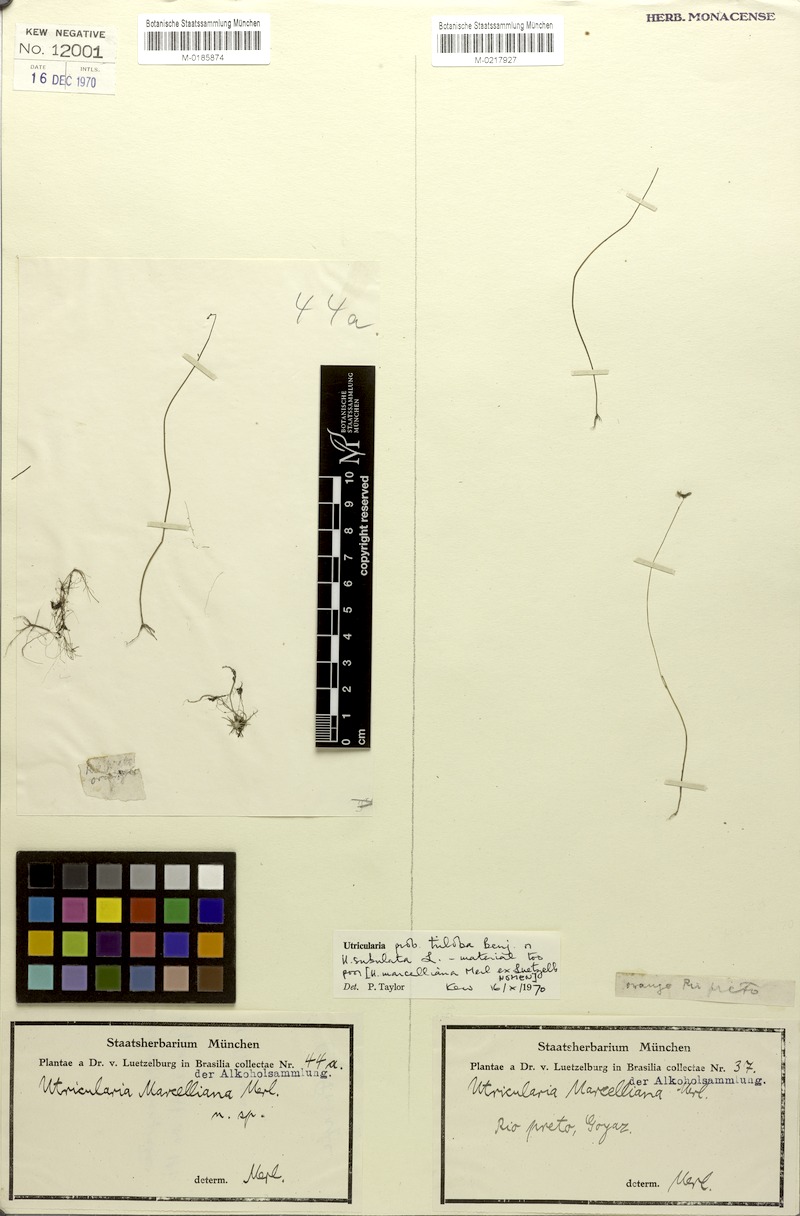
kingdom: Plantae
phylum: Tracheophyta
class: Magnoliopsida
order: Lamiales
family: Lentibulariaceae
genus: Utricularia
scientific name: Utricularia subulata
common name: Tiny bladderwort
